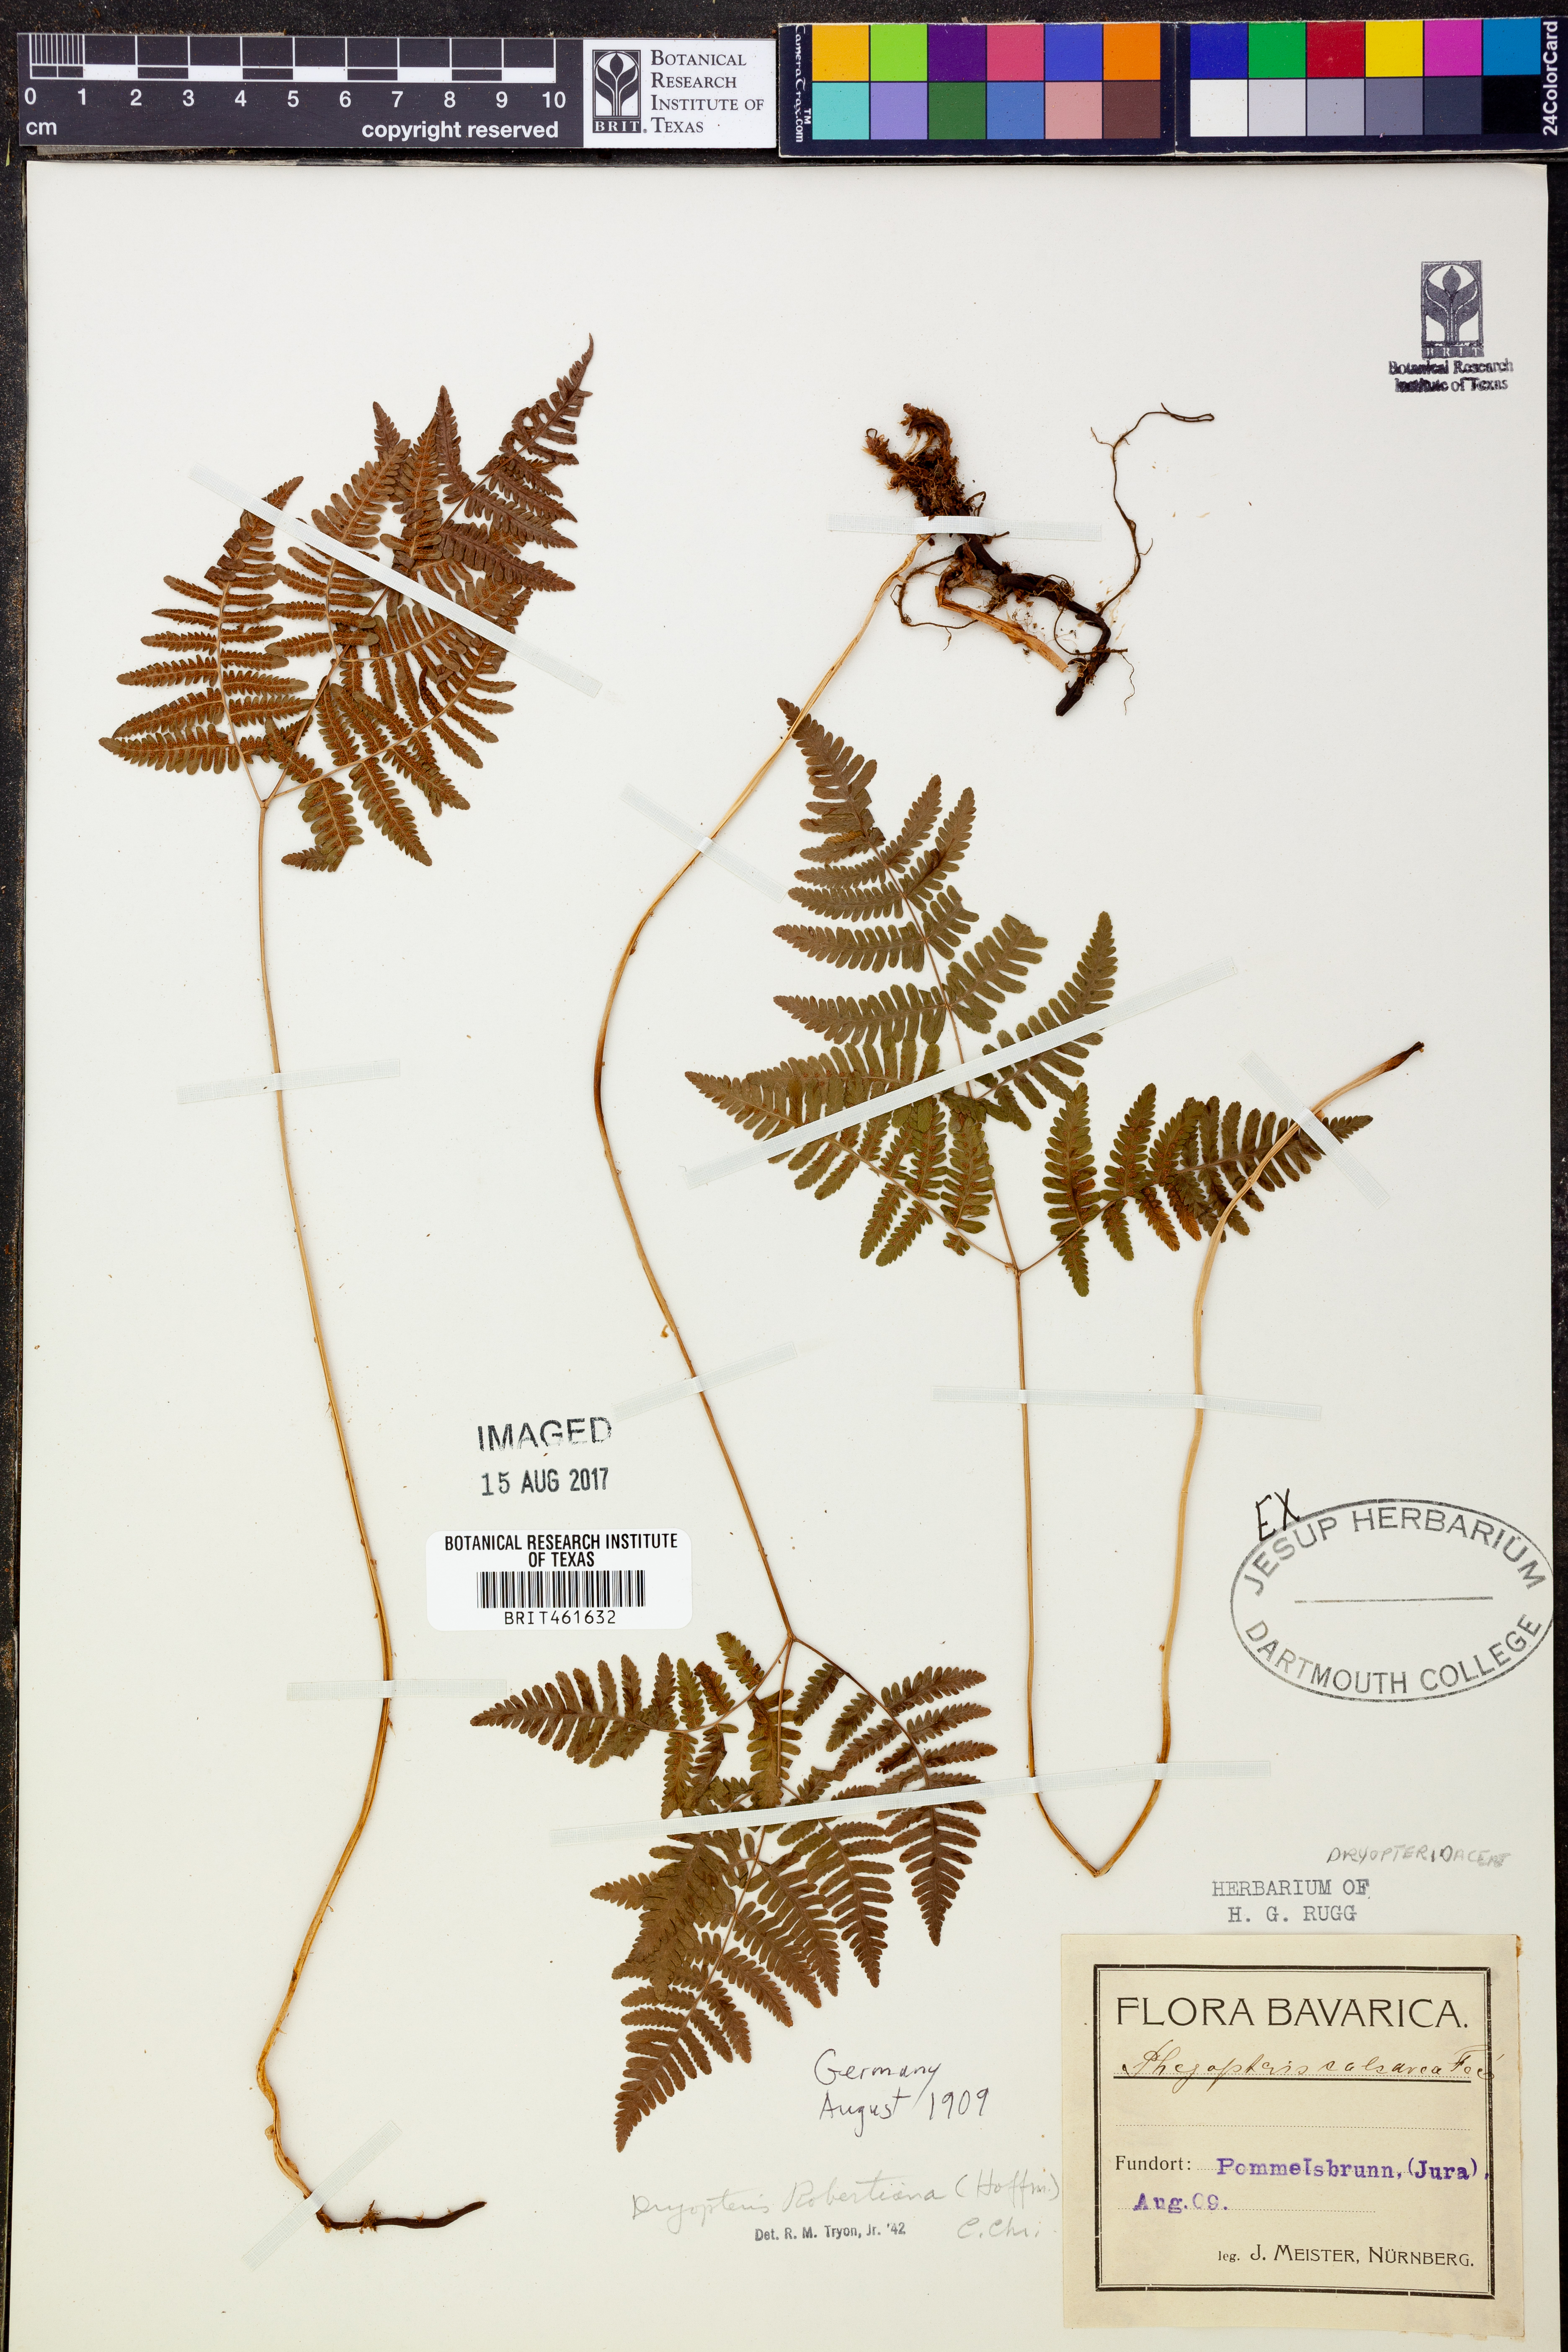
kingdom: Plantae
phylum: Tracheophyta
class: Polypodiopsida
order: Polypodiales
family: Cystopteridaceae
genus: Gymnocarpium
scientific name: Gymnocarpium robertianum
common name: Limestone fern
